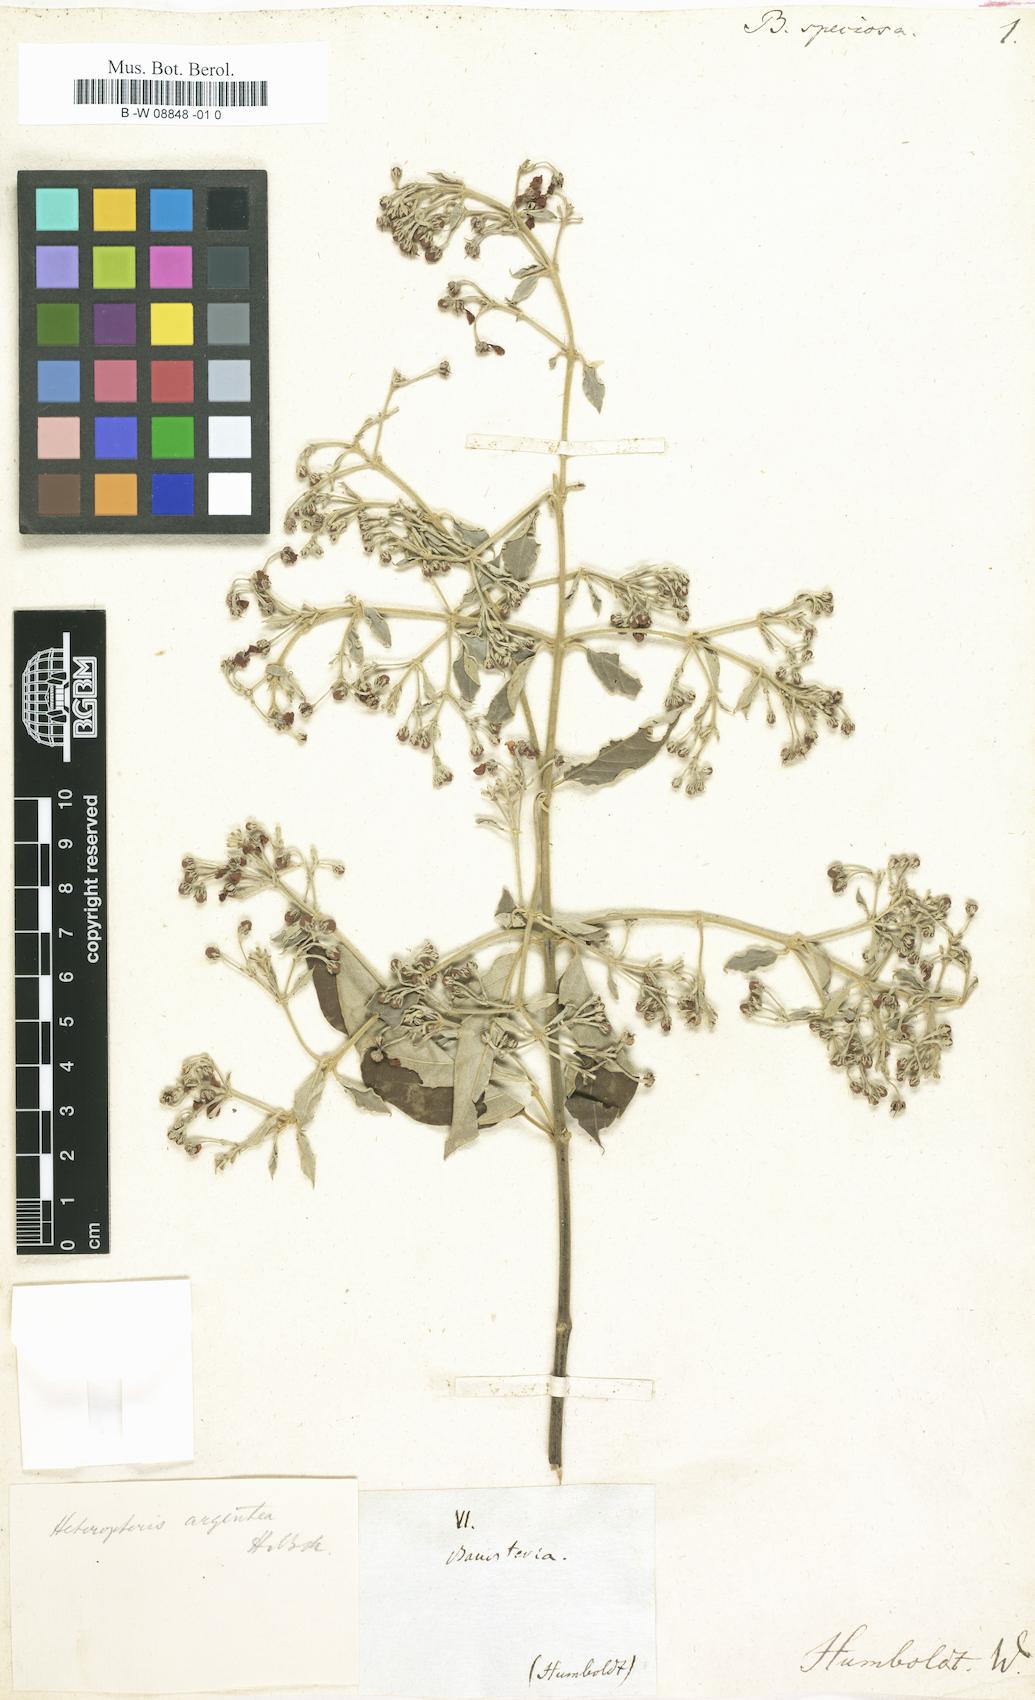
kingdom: Plantae
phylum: Tracheophyta
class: Magnoliopsida
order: Malpighiales
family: Malpighiaceae
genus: Heteropterys
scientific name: Heteropterys
